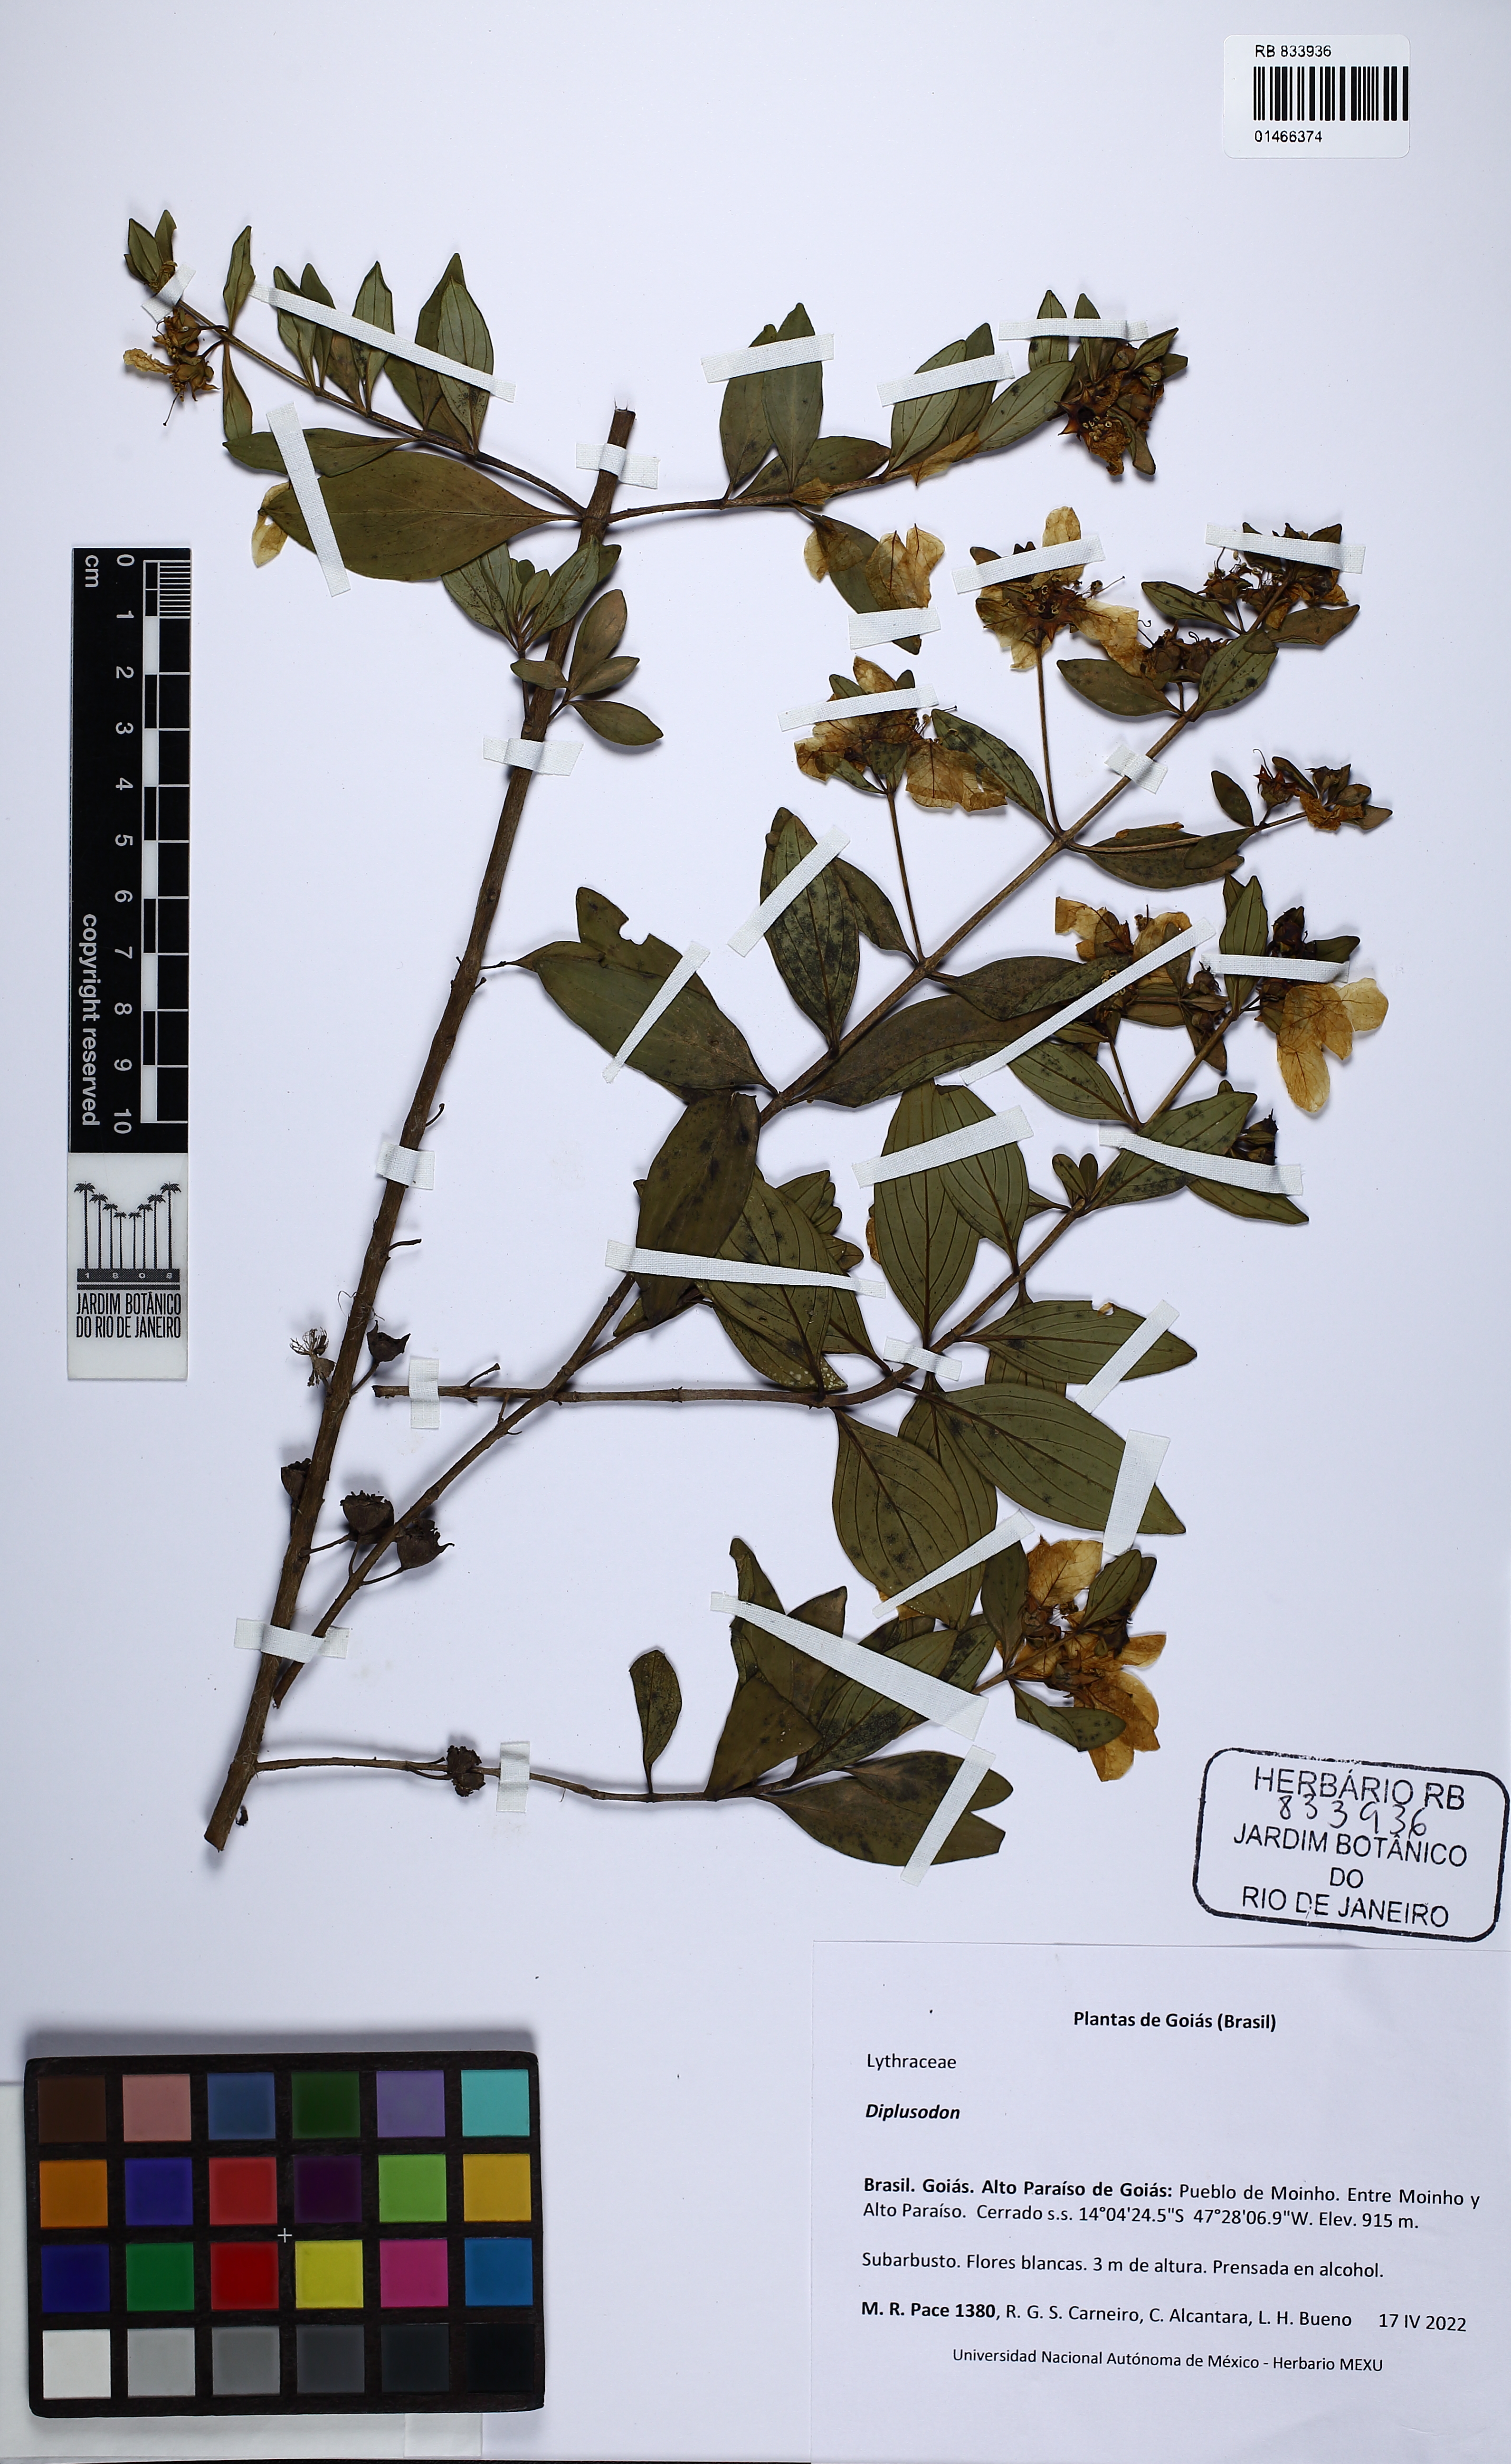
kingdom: Plantae
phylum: Tracheophyta
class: Magnoliopsida
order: Myrtales
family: Lythraceae
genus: Diplusodon
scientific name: Diplusodon
